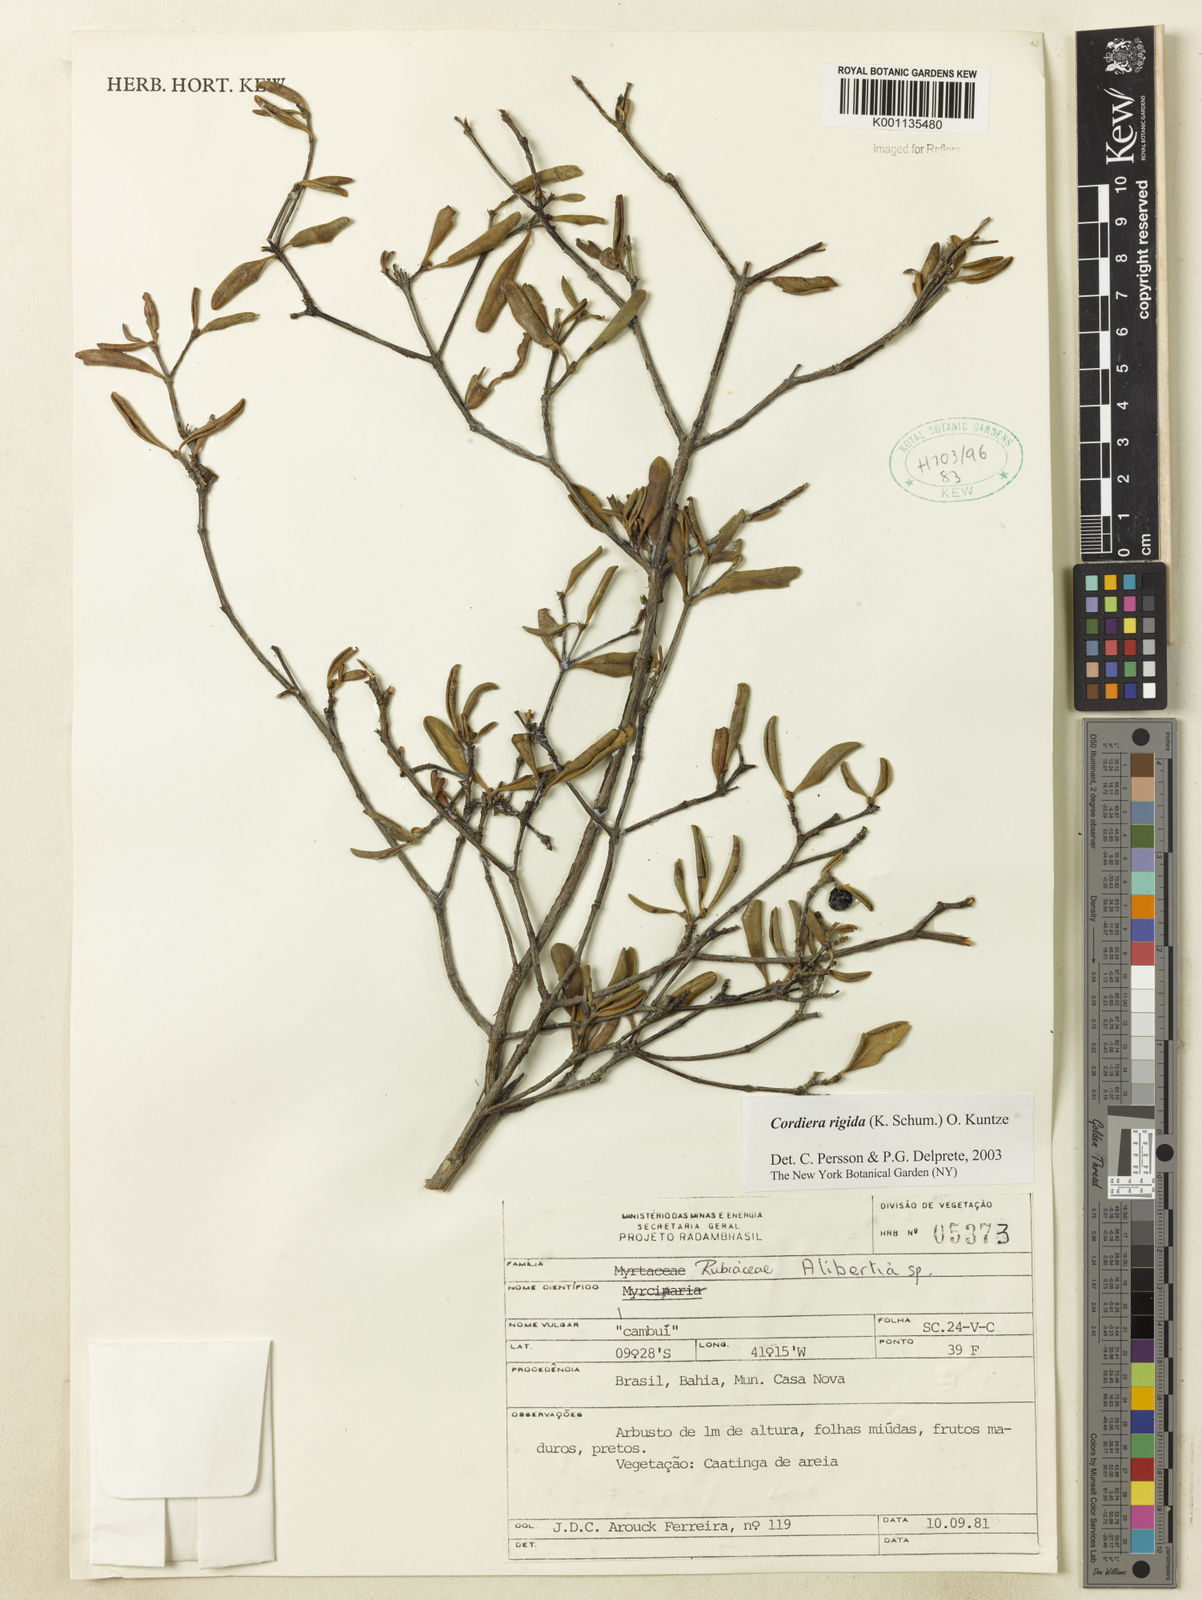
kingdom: Plantae
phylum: Tracheophyta
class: Magnoliopsida
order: Gentianales
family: Rubiaceae
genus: Cordiera
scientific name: Cordiera rigida
